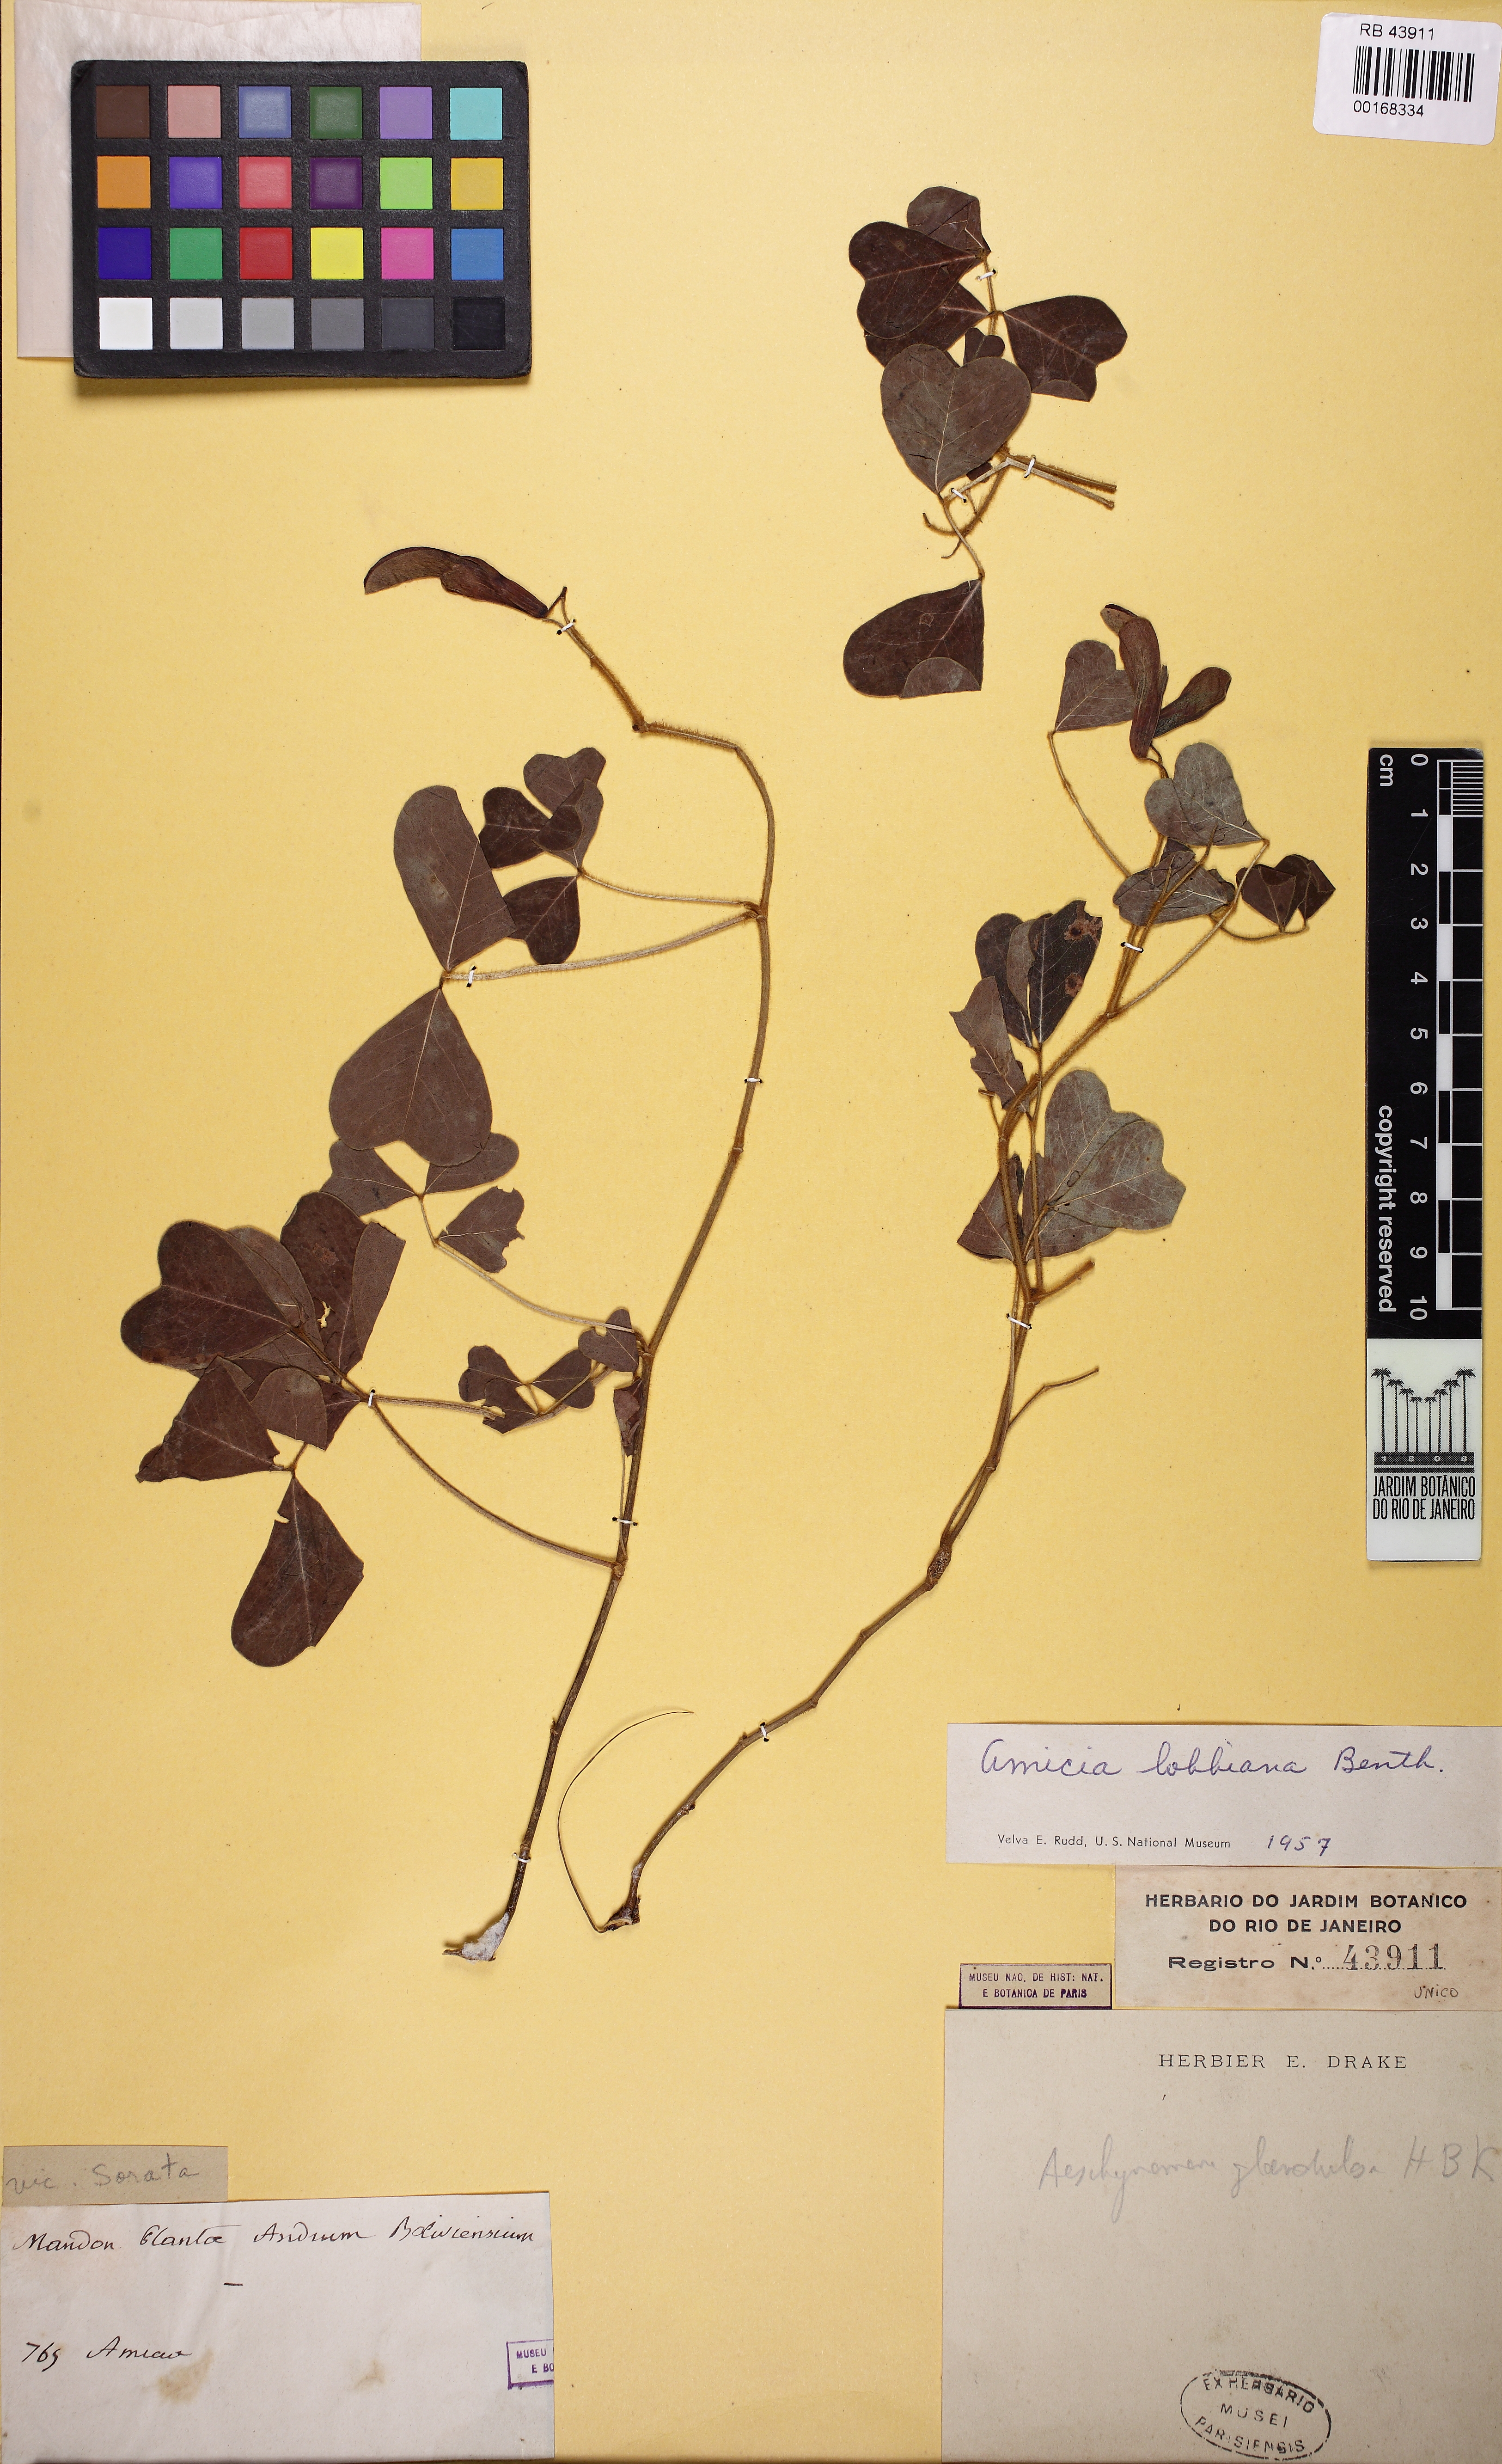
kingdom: Plantae
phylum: Tracheophyta
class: Magnoliopsida
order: Fabales
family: Fabaceae
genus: Amicia
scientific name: Amicia lobbiana
